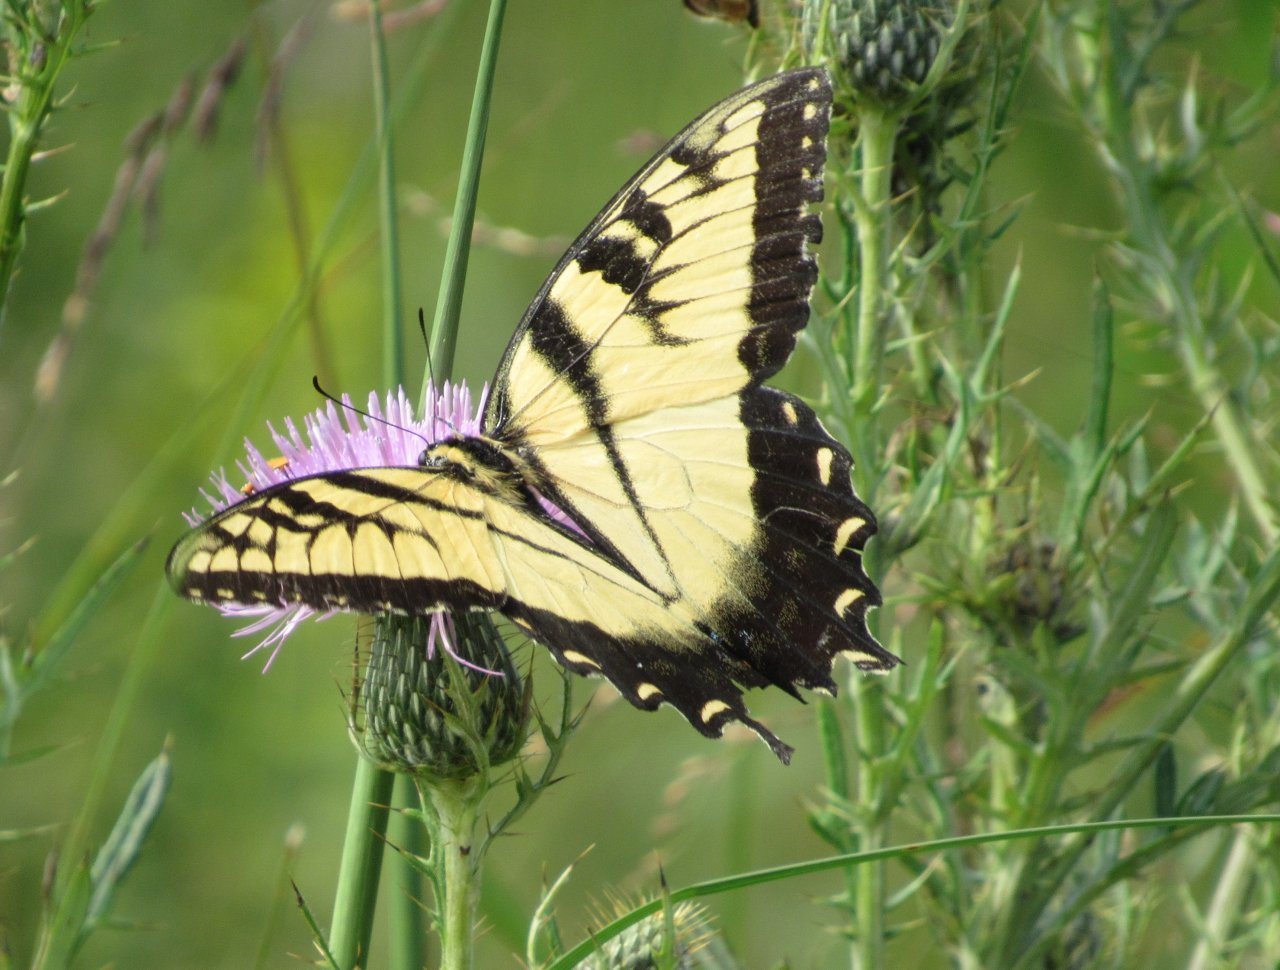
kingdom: Animalia
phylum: Arthropoda
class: Insecta
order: Lepidoptera
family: Papilionidae
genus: Pterourus
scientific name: Pterourus glaucus
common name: Eastern Tiger Swallowtail
